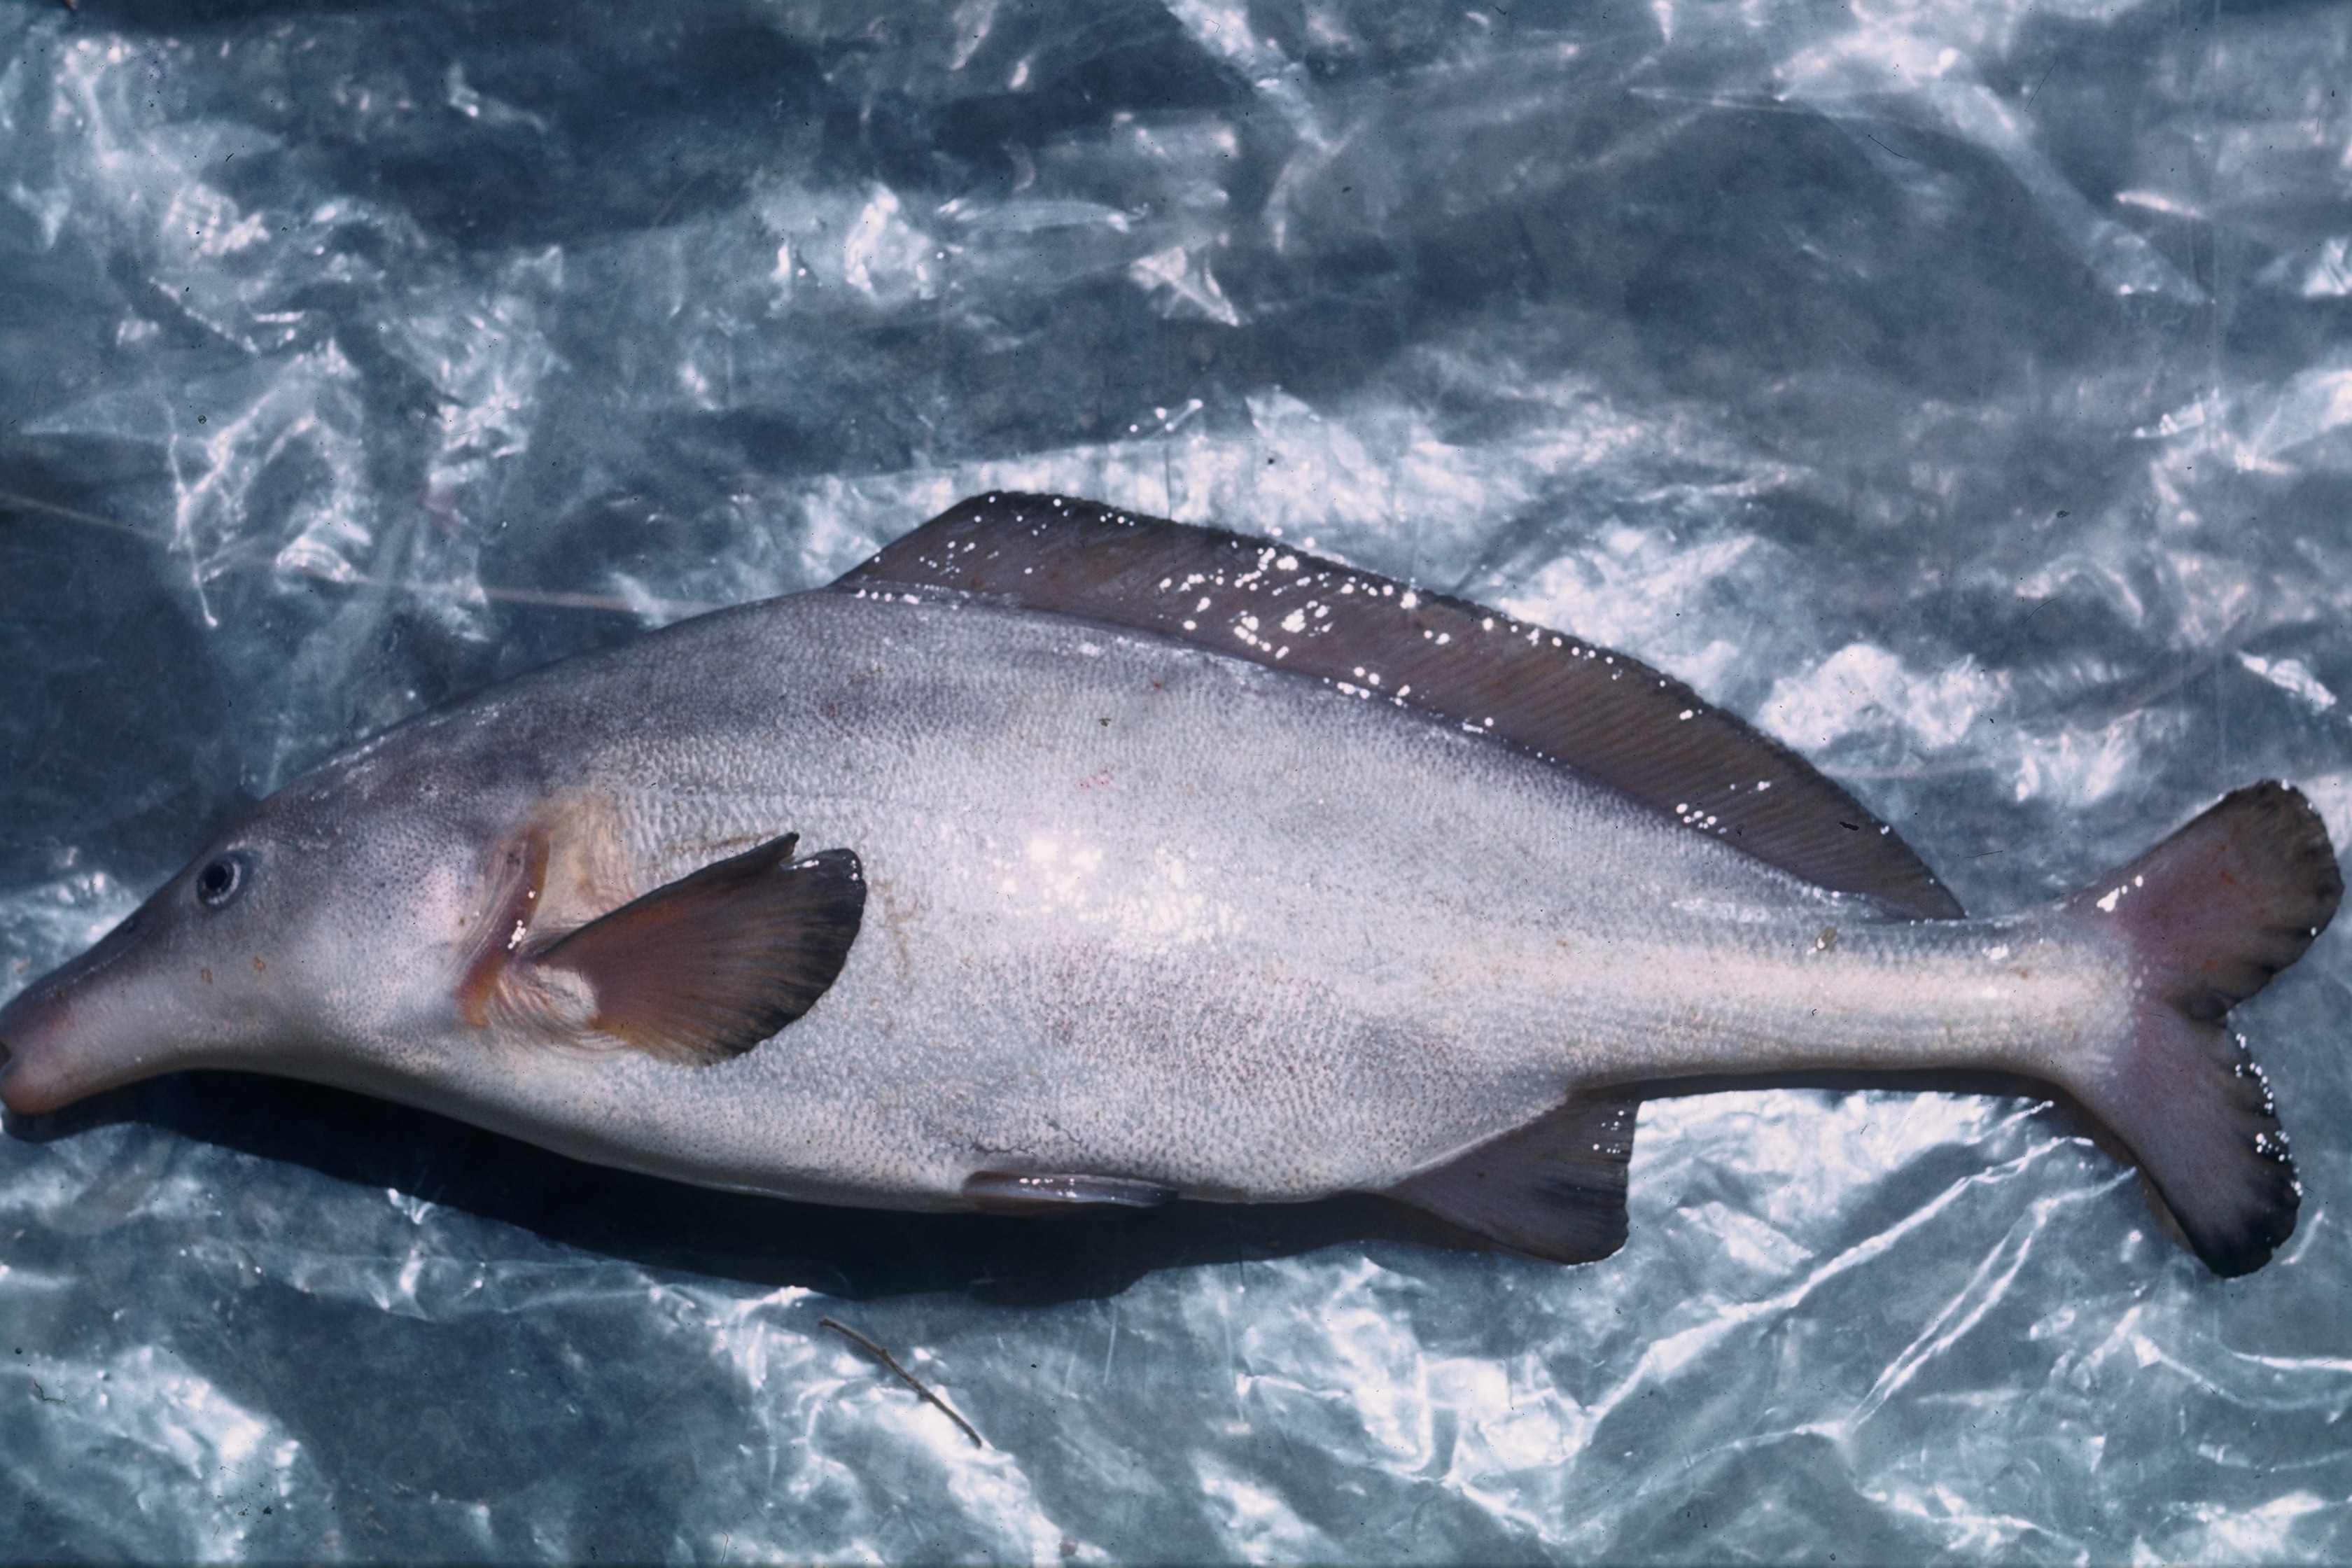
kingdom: Animalia
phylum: Chordata
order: Osteoglossiformes
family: Mormyridae
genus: Mormyrus
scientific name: Mormyrus longirostris
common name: Eastern bottlenose
